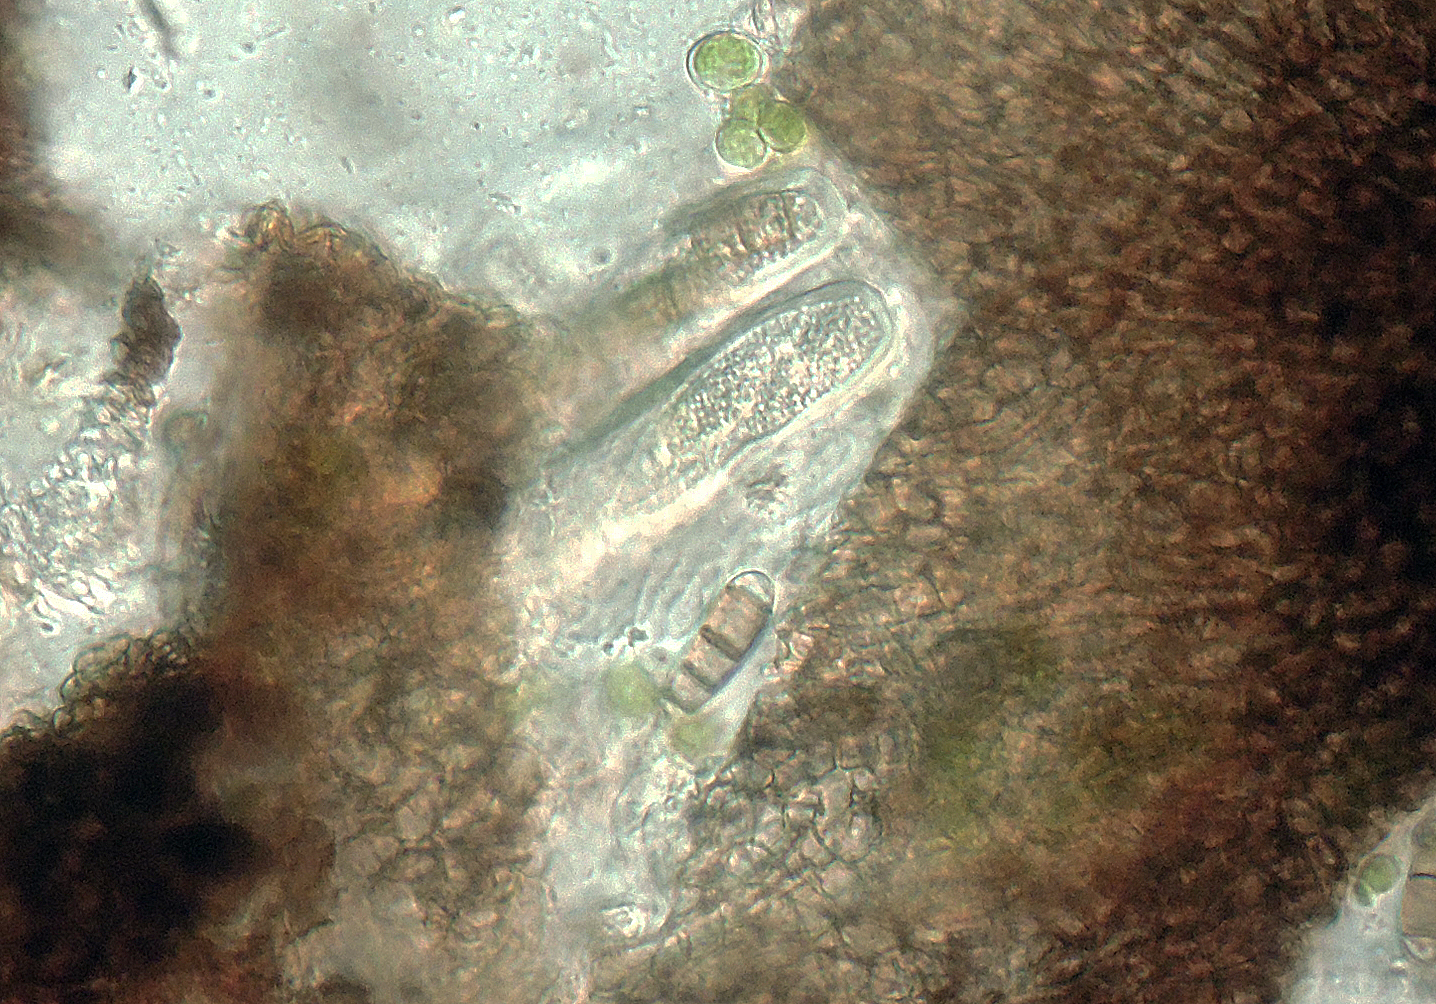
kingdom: Fungi
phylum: Ascomycota
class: Dothideomycetes
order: Tubeufiales
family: Tubeufiaceae
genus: Rebentischia
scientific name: Rebentischia unicaudata
